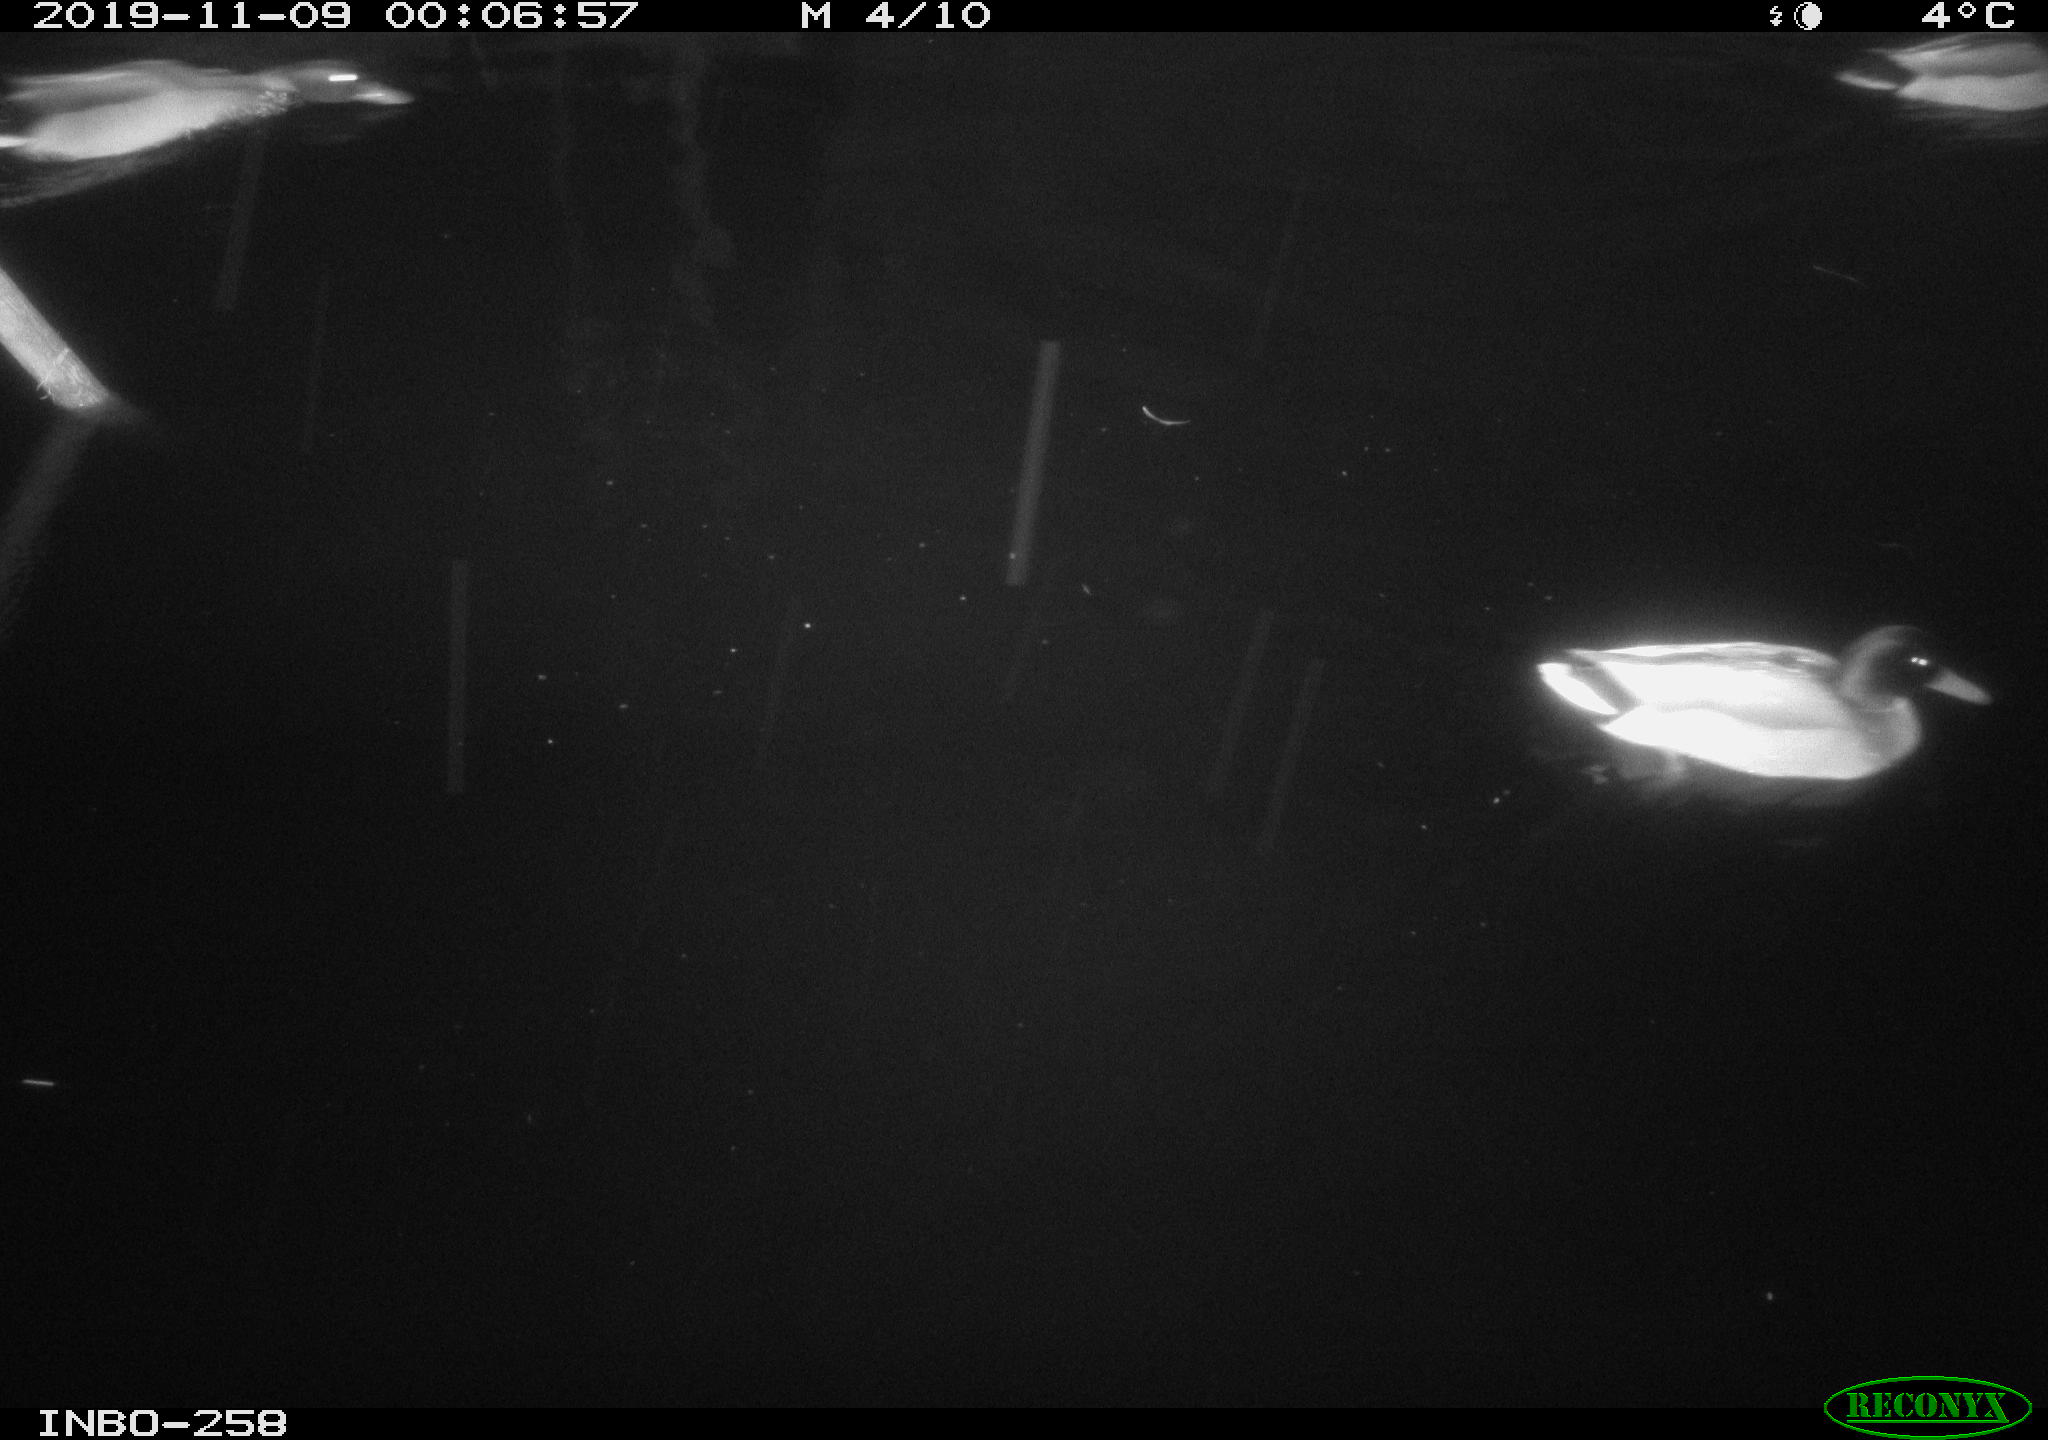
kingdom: Animalia
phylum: Chordata
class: Aves
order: Anseriformes
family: Anatidae
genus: Anas
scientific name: Anas platyrhynchos
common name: Mallard
